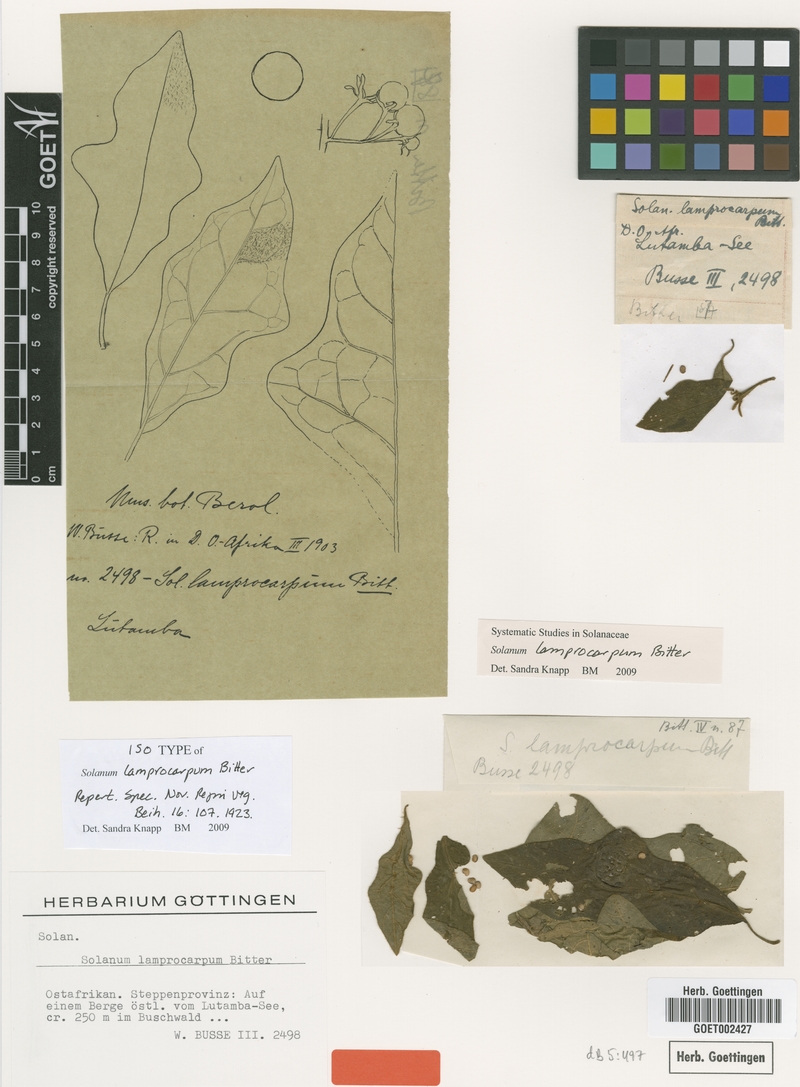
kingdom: Plantae
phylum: Tracheophyta
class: Magnoliopsida
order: Solanales
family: Solanaceae
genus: Solanum
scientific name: Solanum lamprocarpum
